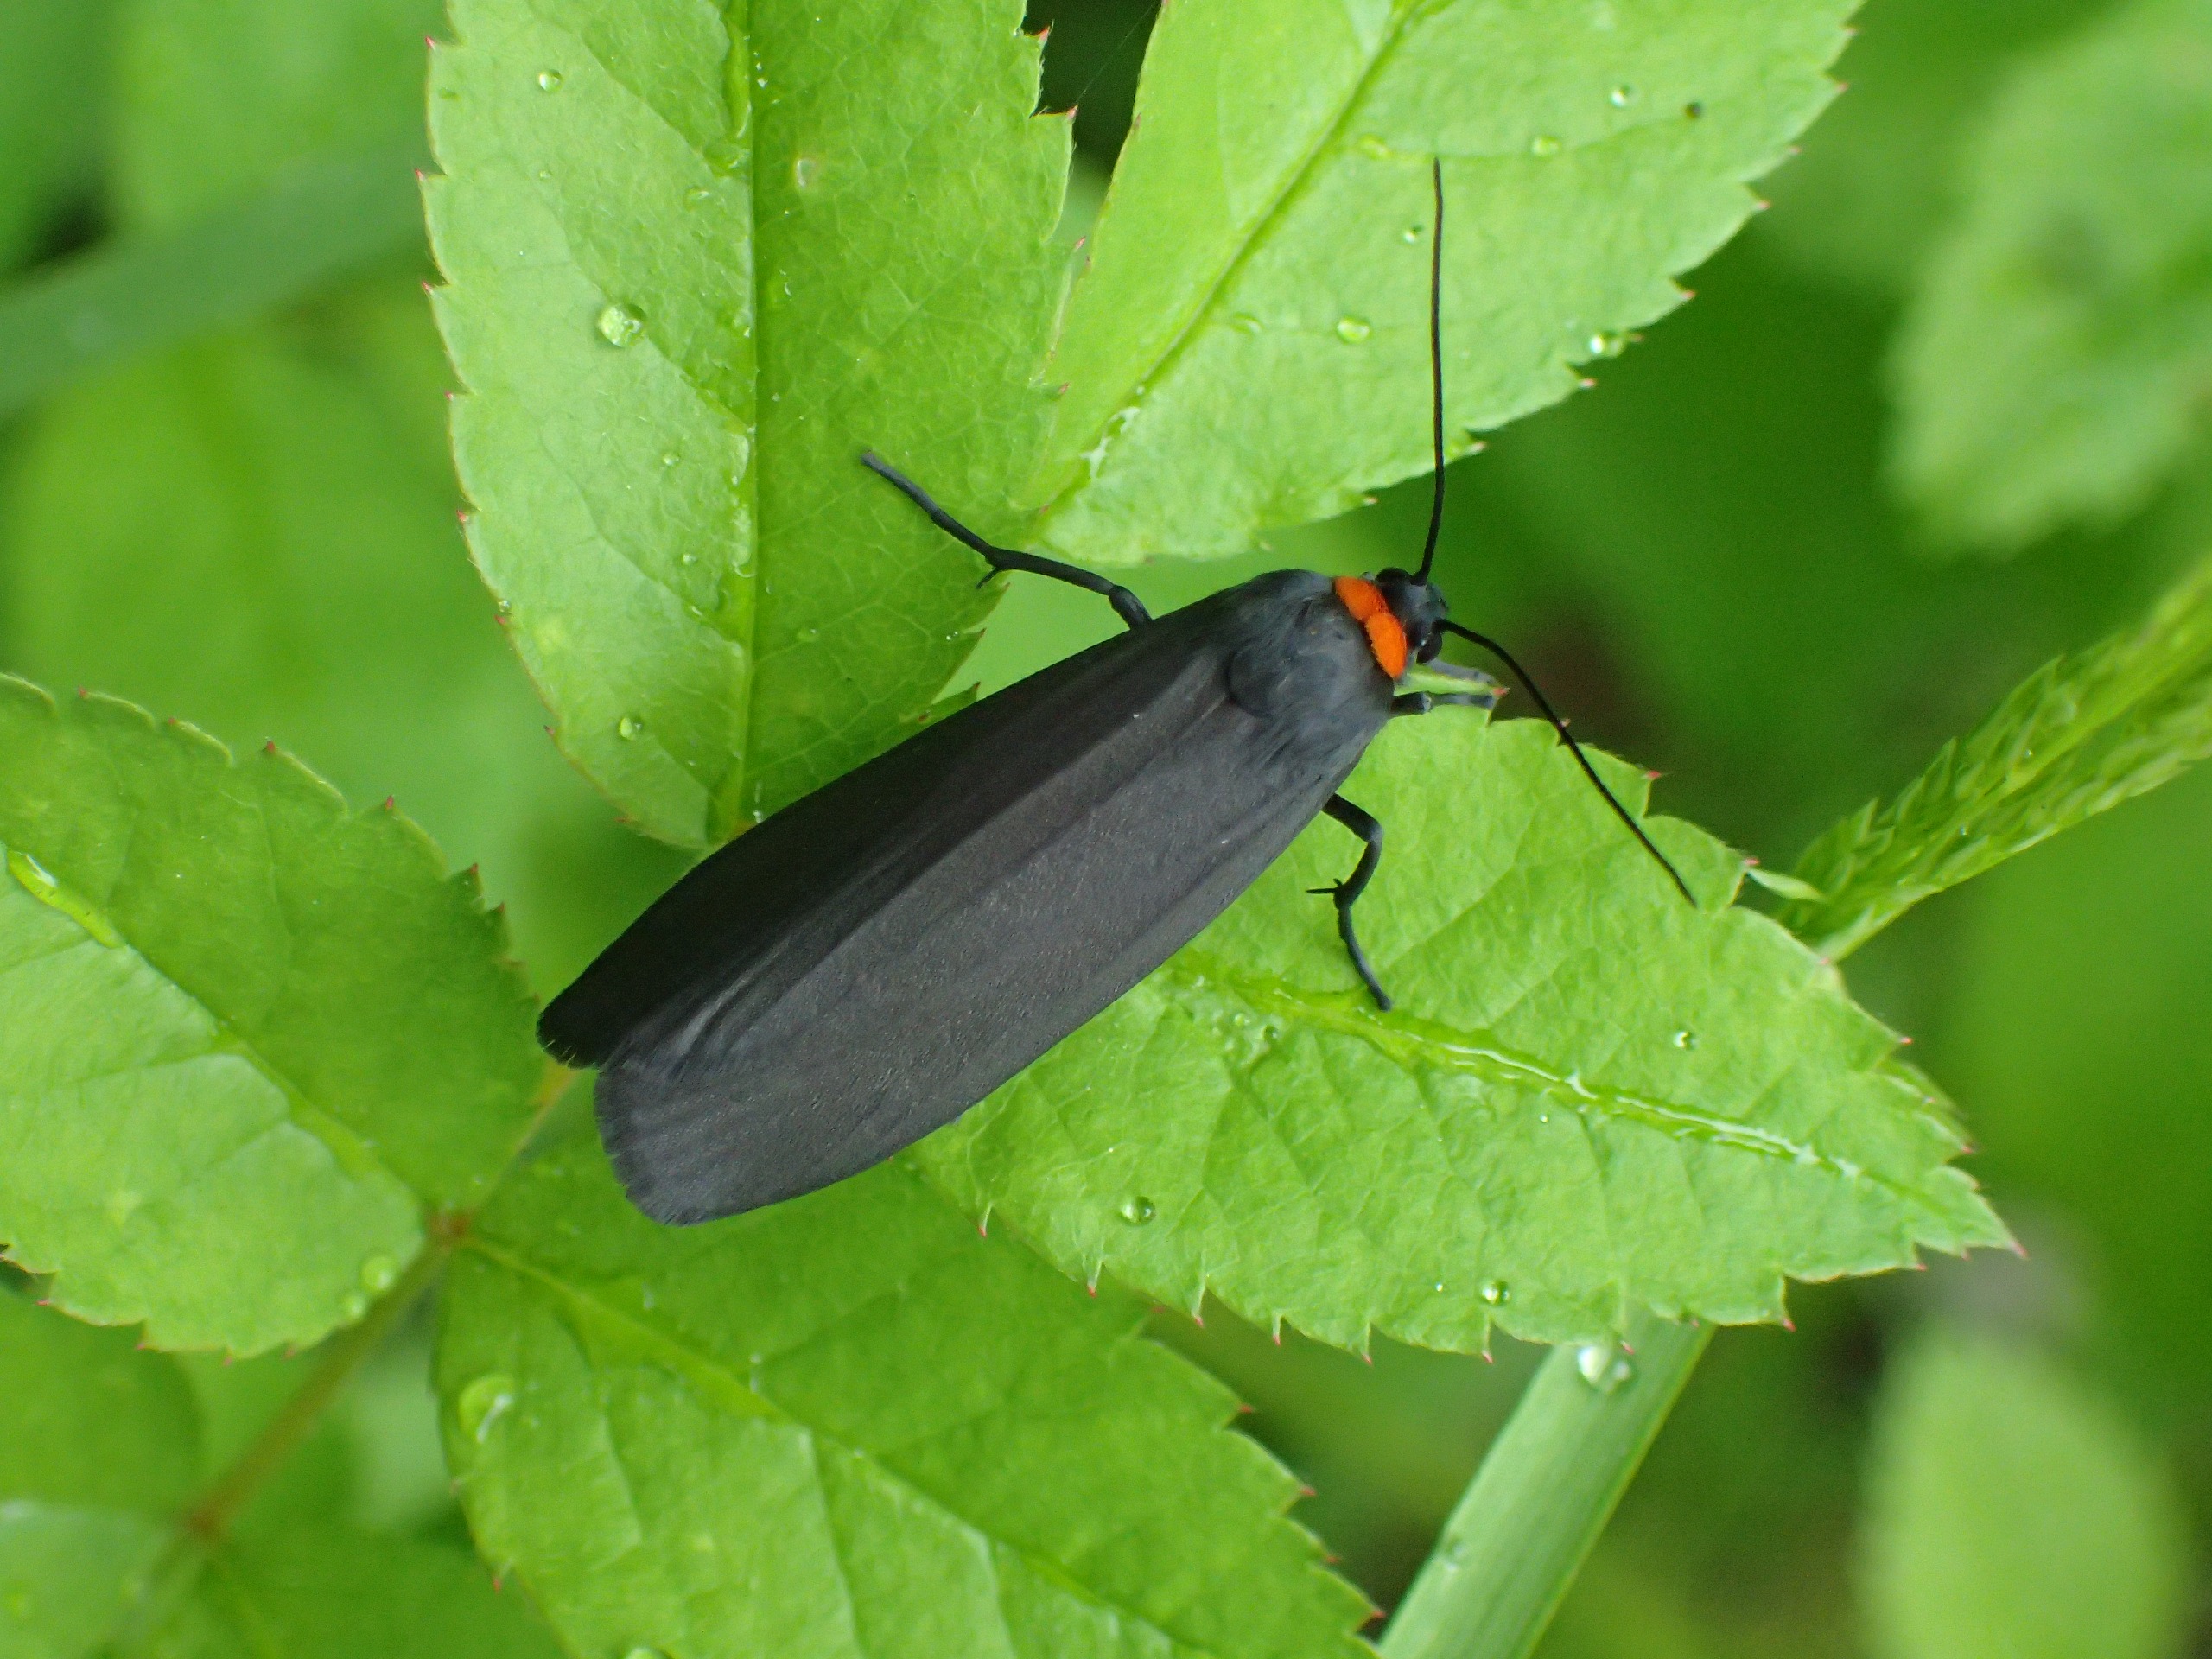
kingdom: Animalia
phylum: Arthropoda
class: Insecta
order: Lepidoptera
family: Erebidae
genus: Atolmis
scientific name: Atolmis rubricollis
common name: Blodnakke
